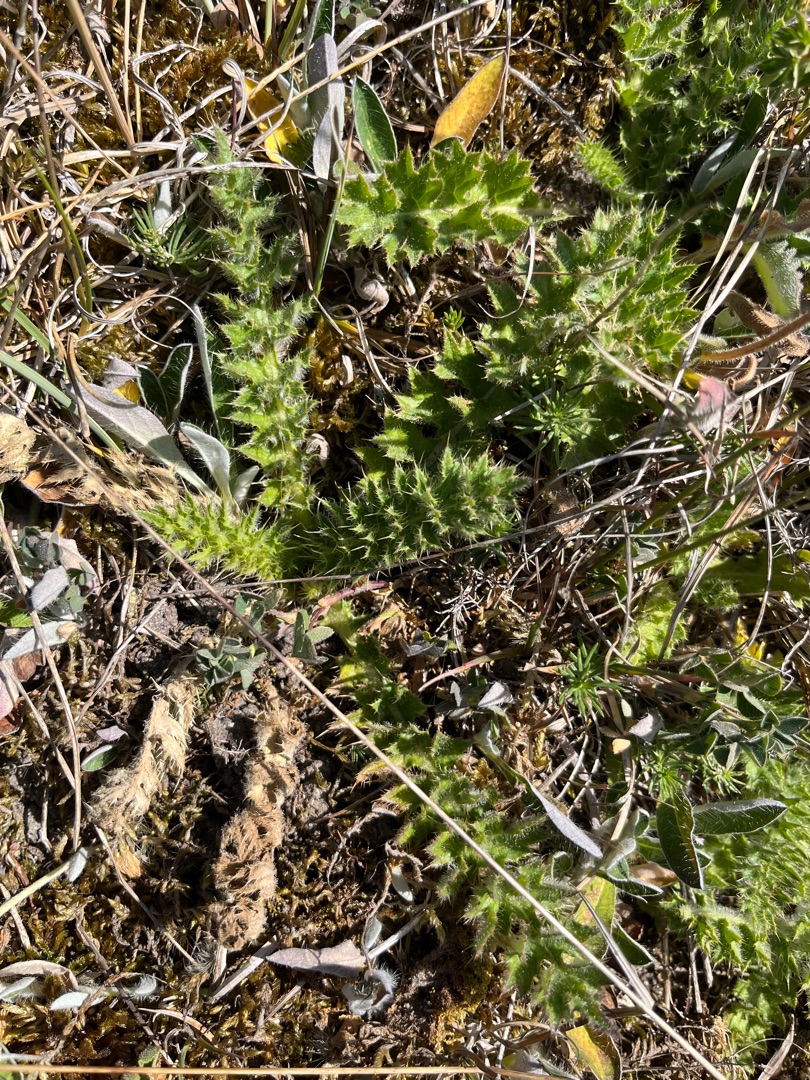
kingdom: Plantae
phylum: Tracheophyta
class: Magnoliopsida
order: Asterales
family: Asteraceae
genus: Cirsium
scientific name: Cirsium acaule
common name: Lav tidsel
